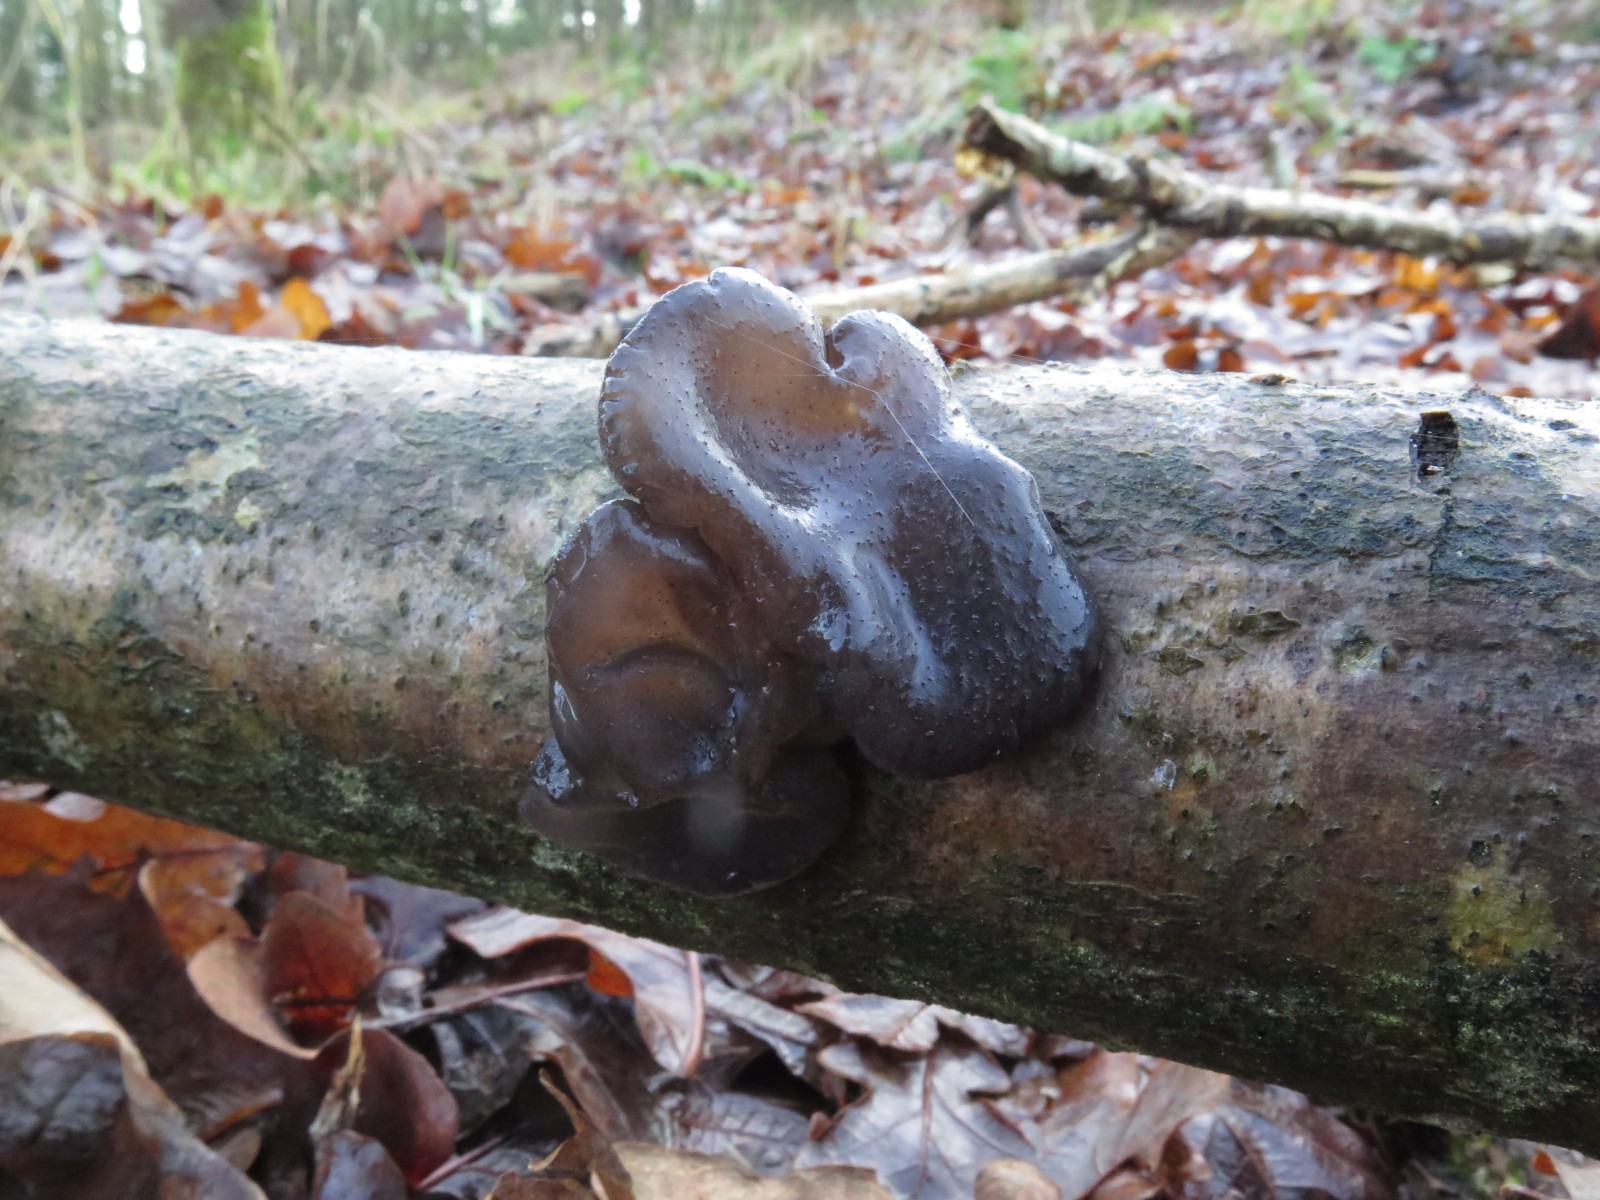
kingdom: Fungi
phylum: Basidiomycota
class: Agaricomycetes
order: Auriculariales
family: Auriculariaceae
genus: Exidia
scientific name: Exidia glandulosa
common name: ege-bævretop
